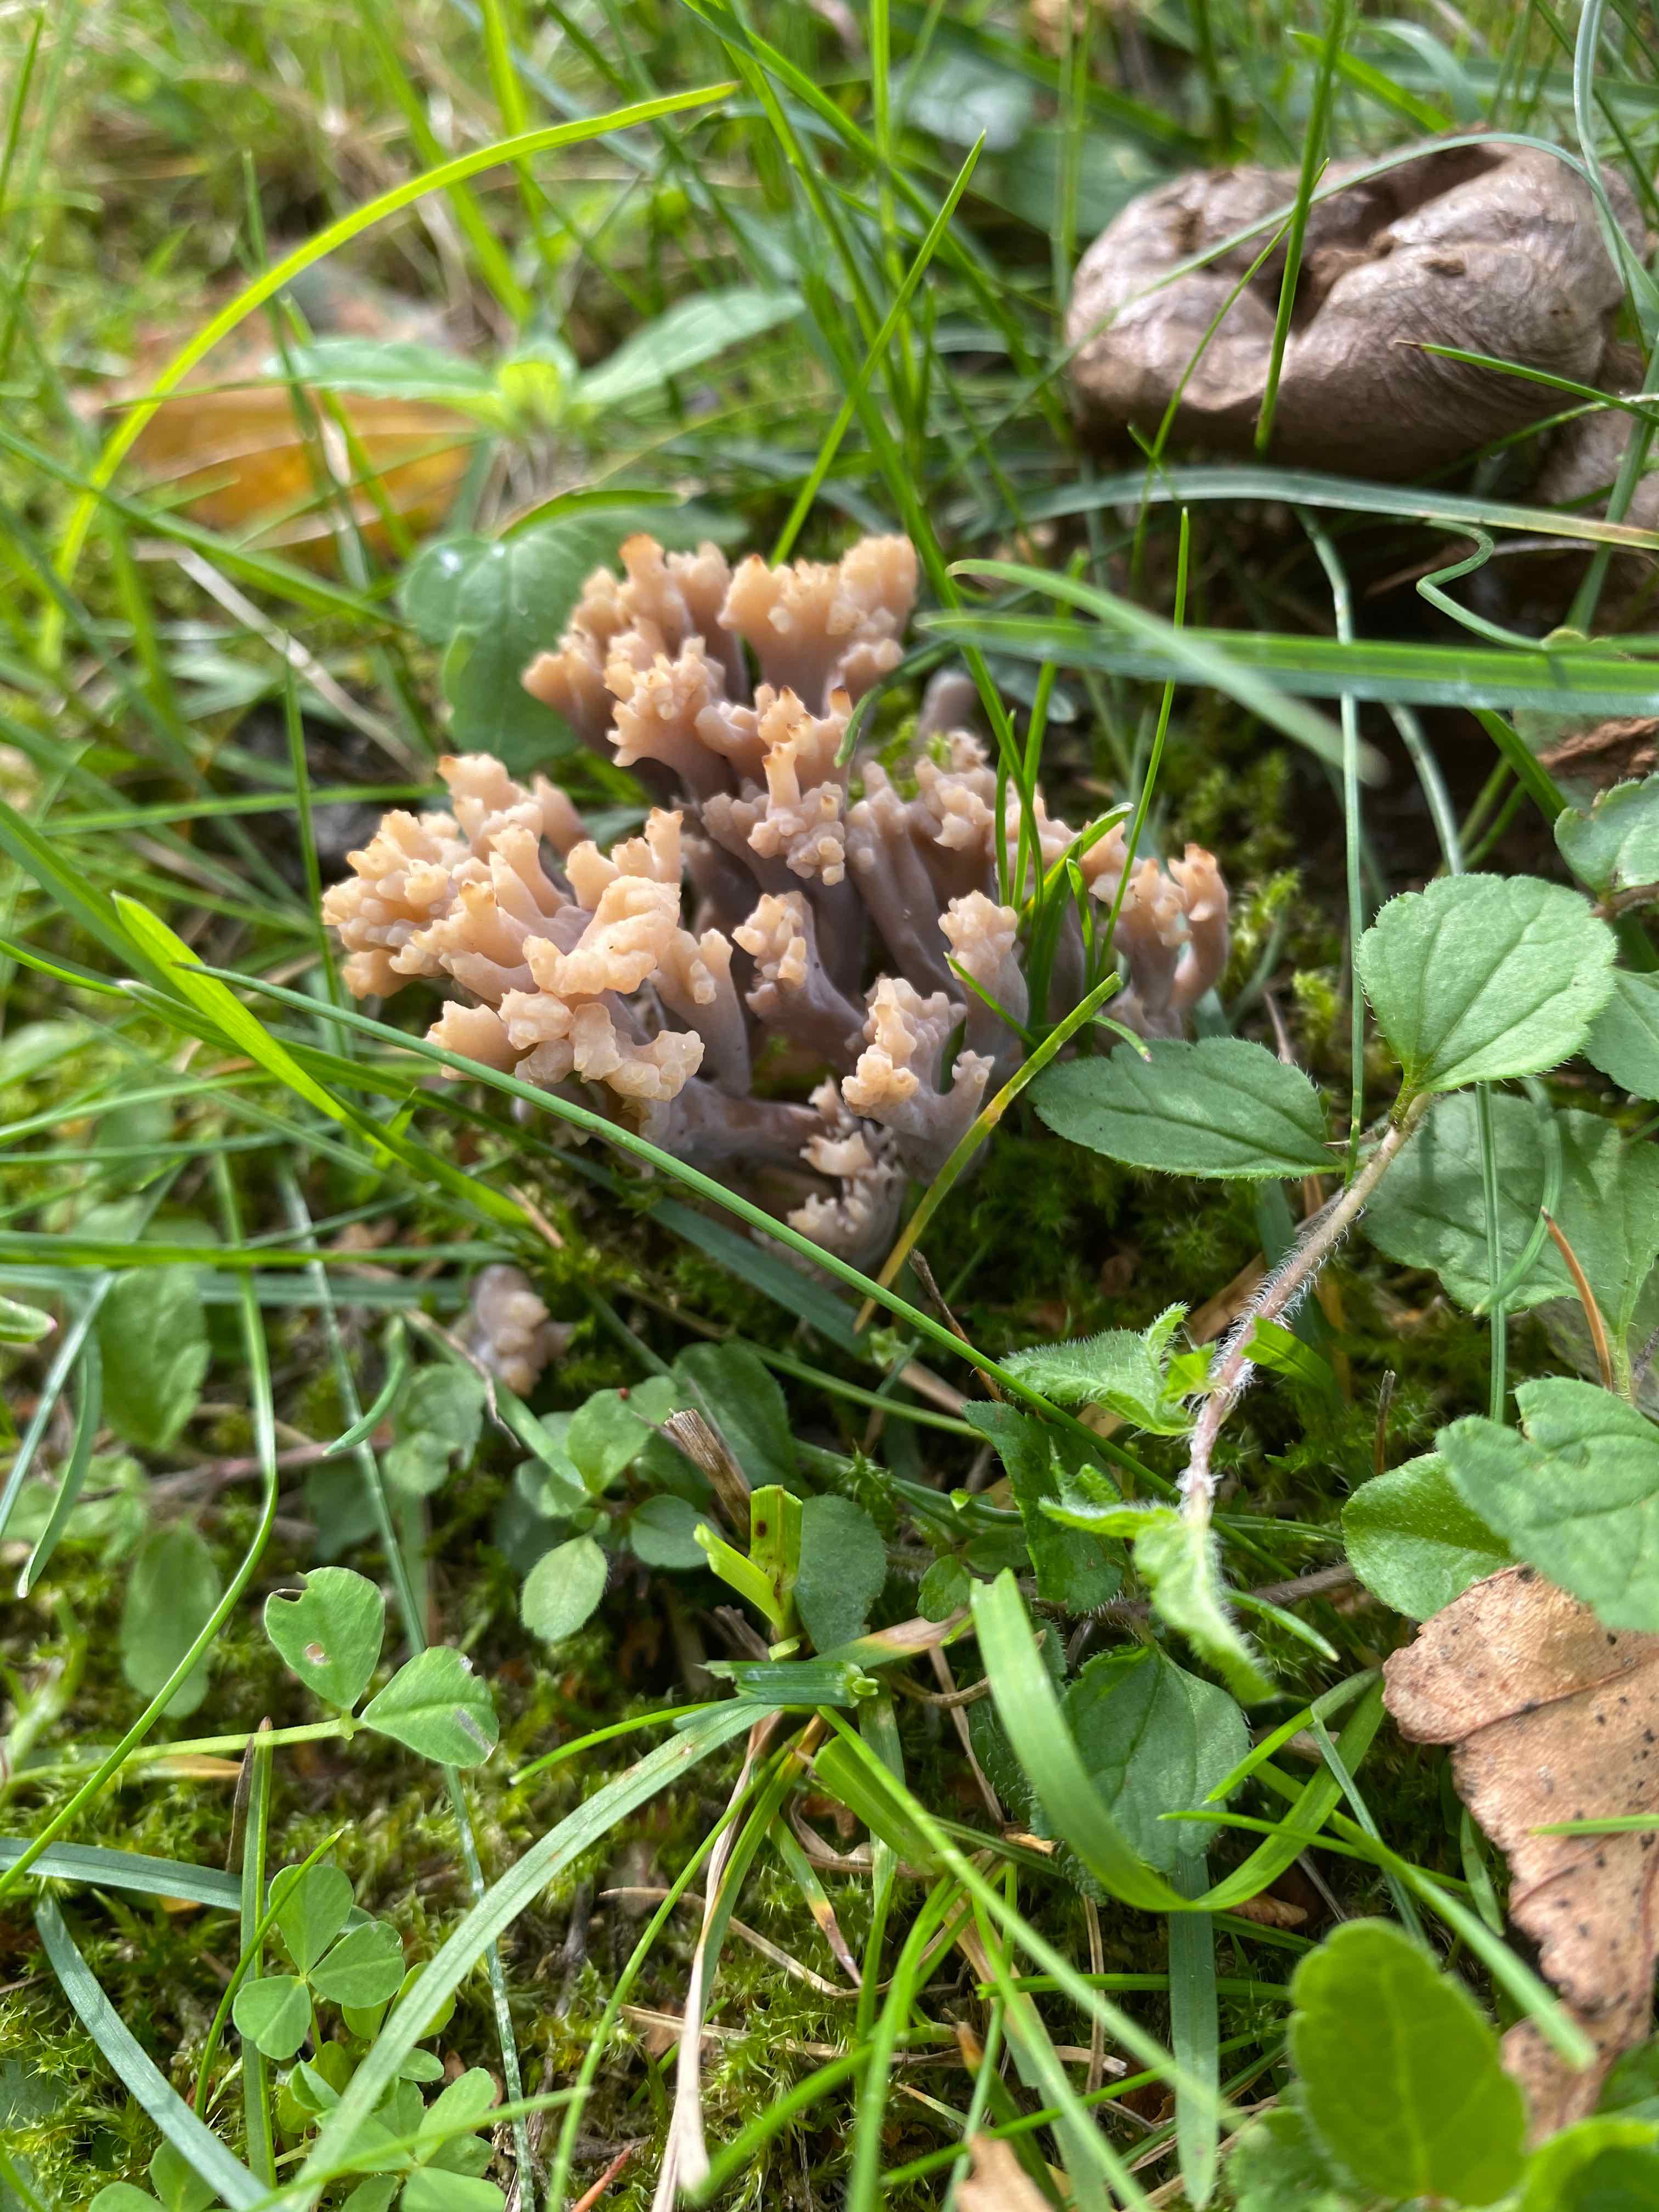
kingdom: Fungi
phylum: Basidiomycota
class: Agaricomycetes
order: Cantharellales
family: Hydnaceae
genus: Clavulina
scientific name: Clavulina
